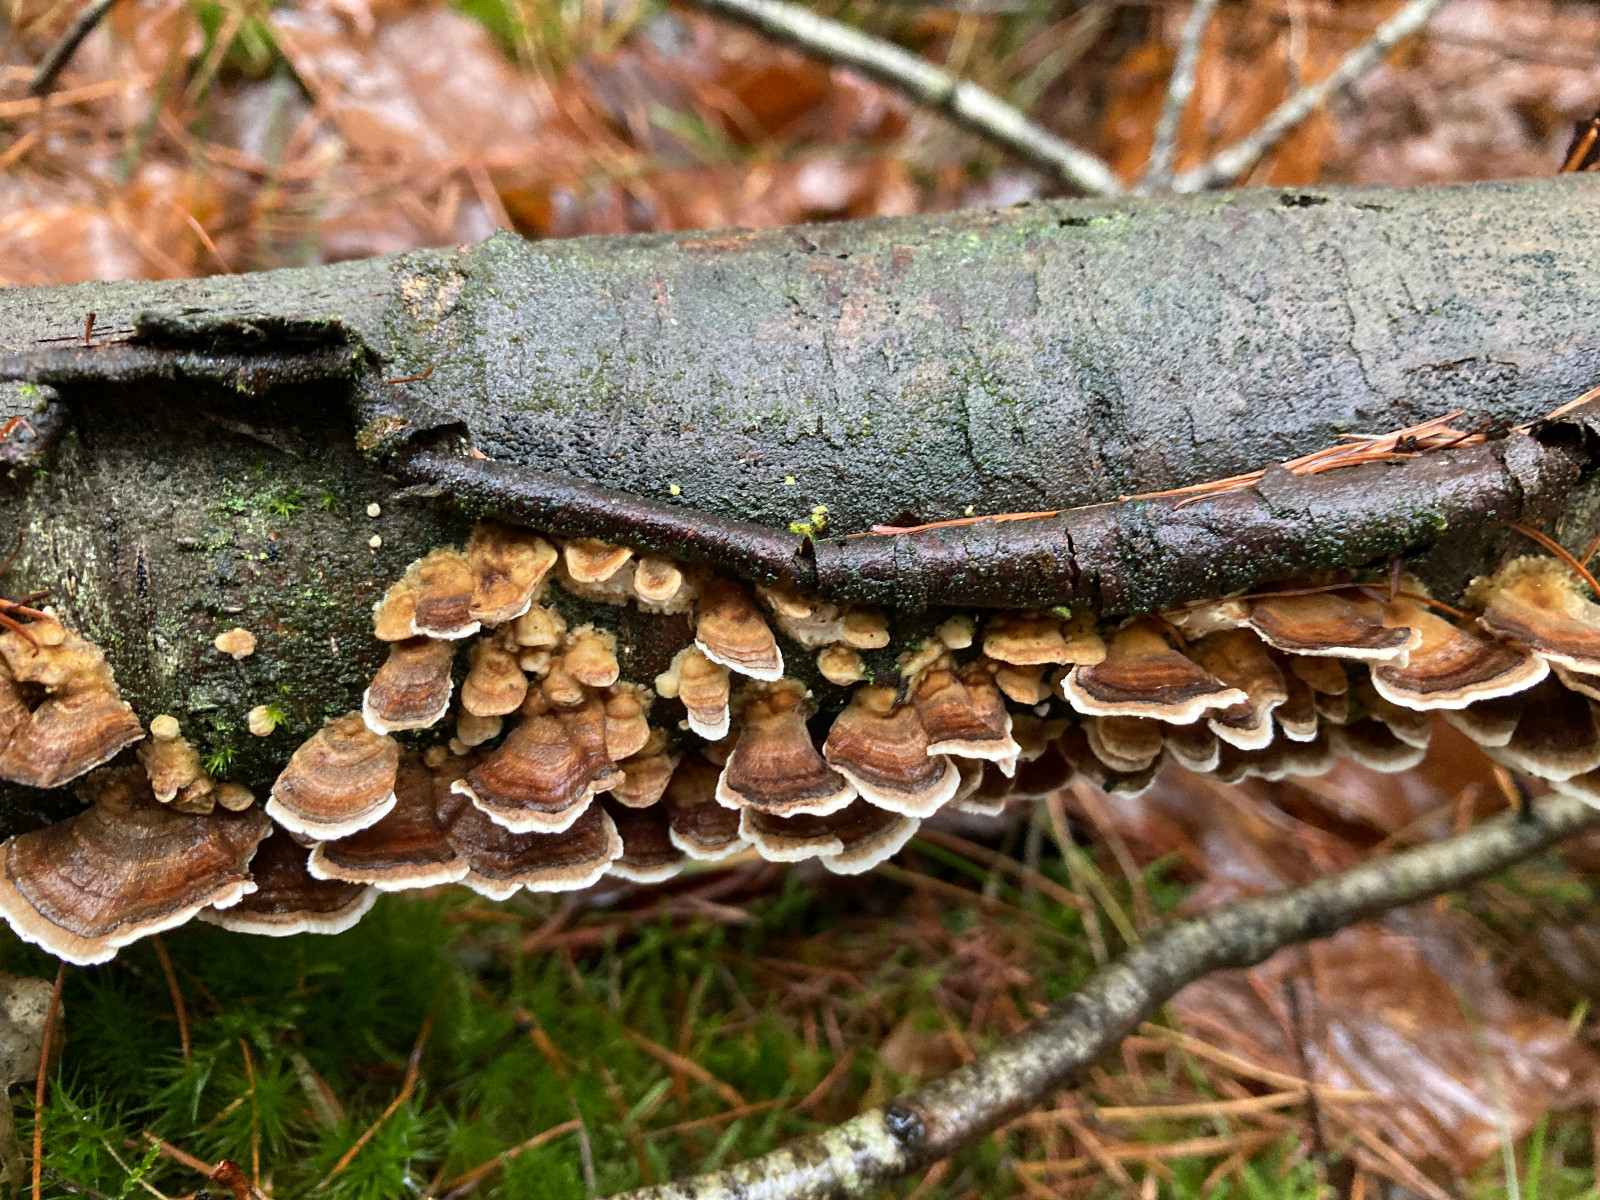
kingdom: Fungi
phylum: Basidiomycota
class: Agaricomycetes
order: Polyporales
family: Polyporaceae
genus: Trametes
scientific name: Trametes versicolor
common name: broget læderporesvamp
